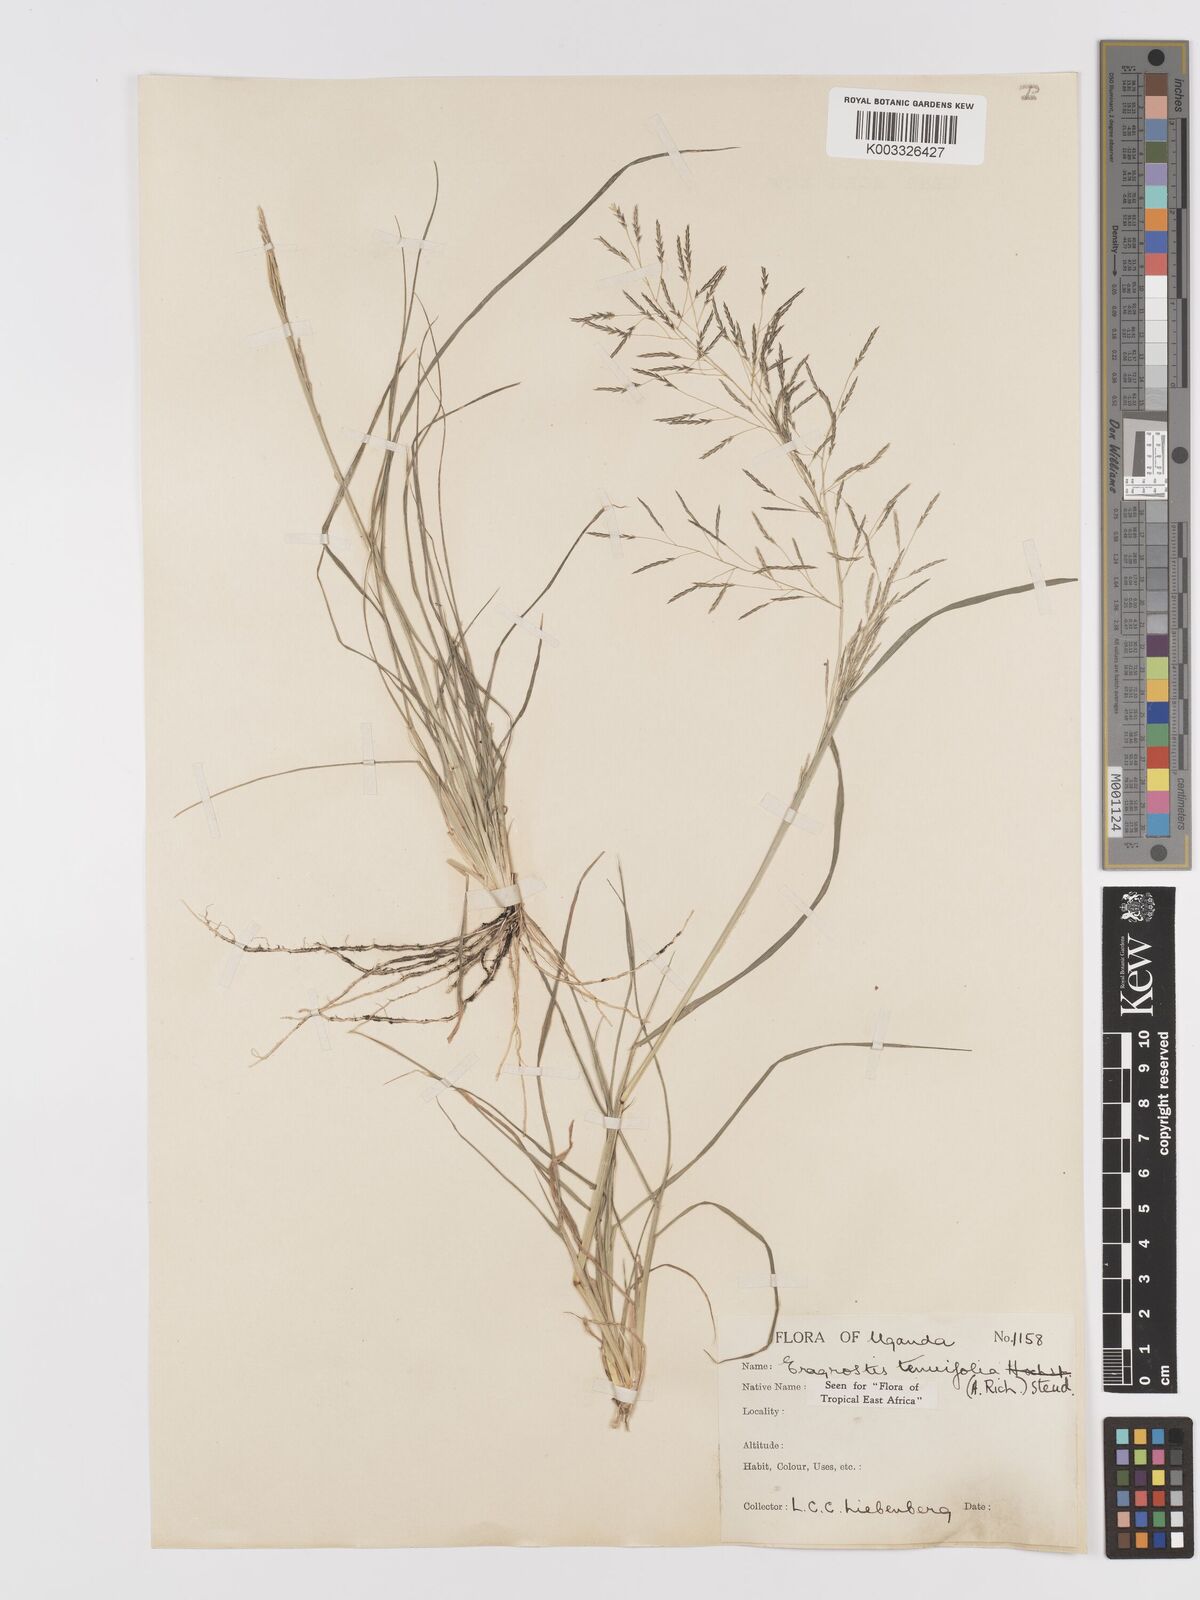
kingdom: Plantae
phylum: Tracheophyta
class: Liliopsida
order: Poales
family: Poaceae
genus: Eragrostis
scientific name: Eragrostis tenuifolia
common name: Elastic grass
